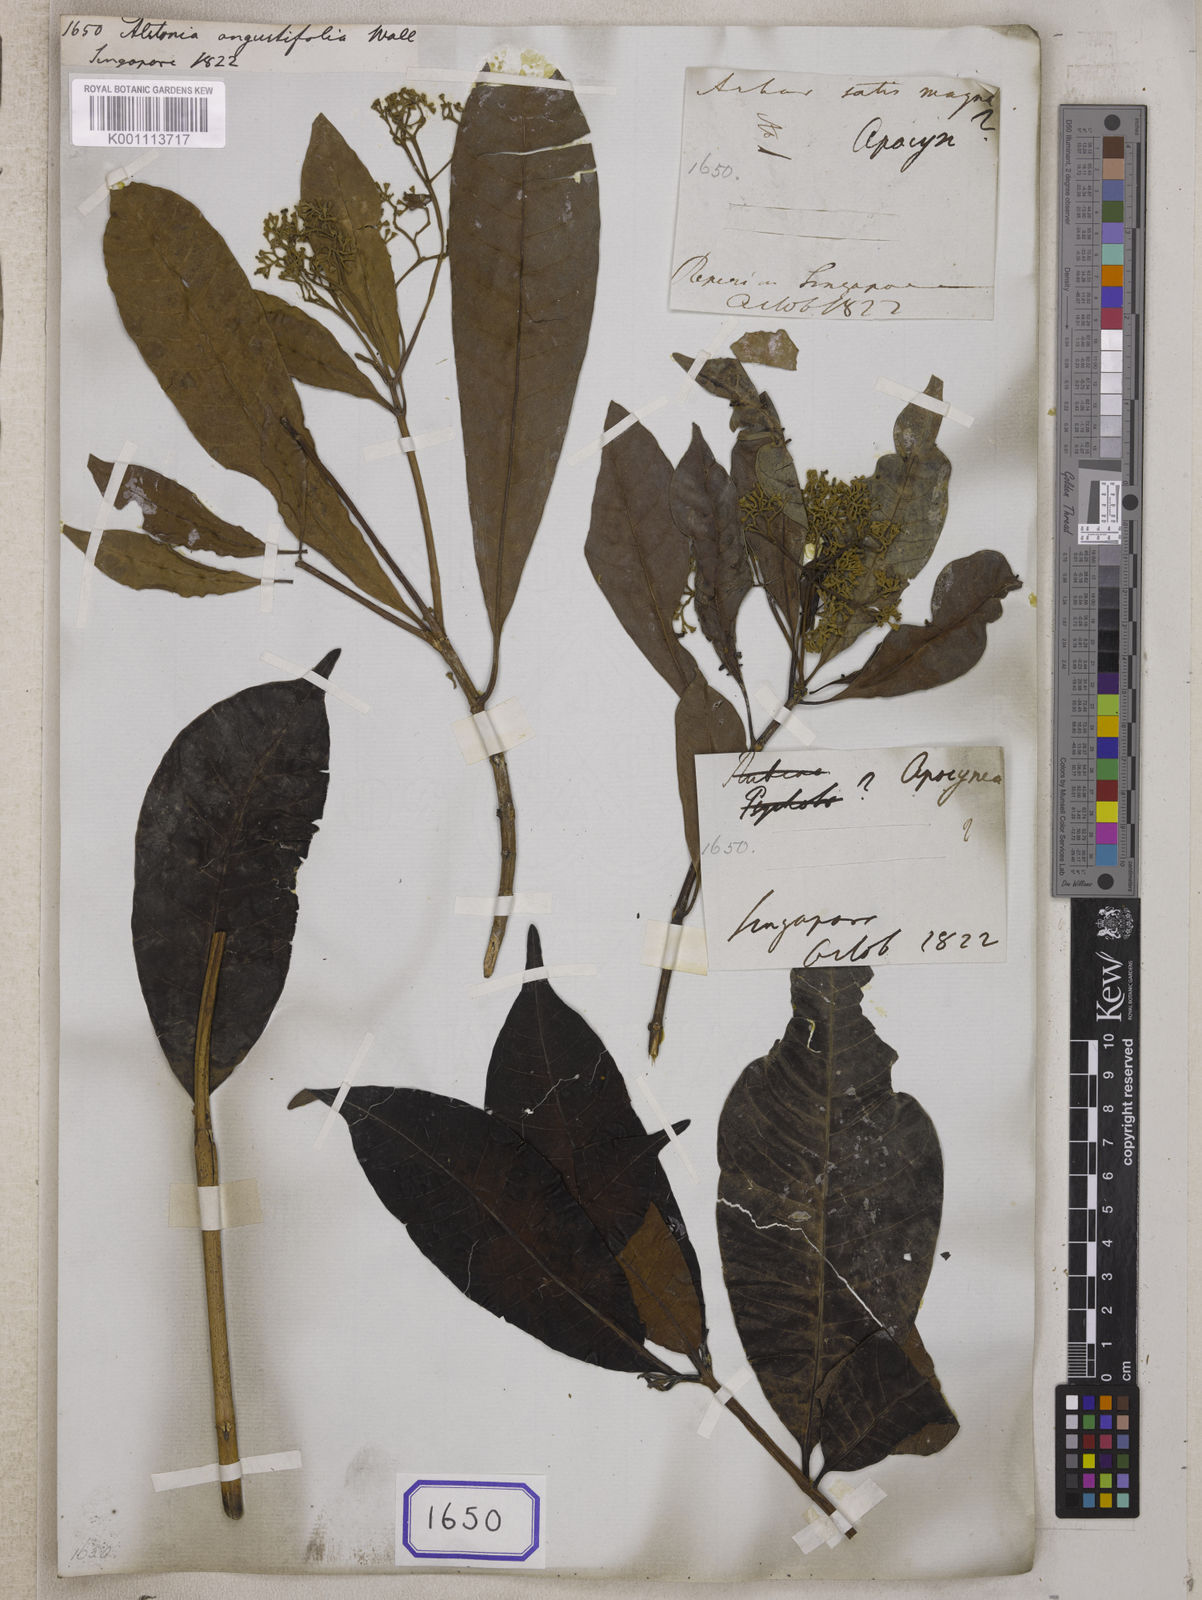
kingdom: Plantae
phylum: Tracheophyta
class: Magnoliopsida
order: Gentianales
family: Apocynaceae
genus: Alstonia
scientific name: Alstonia
